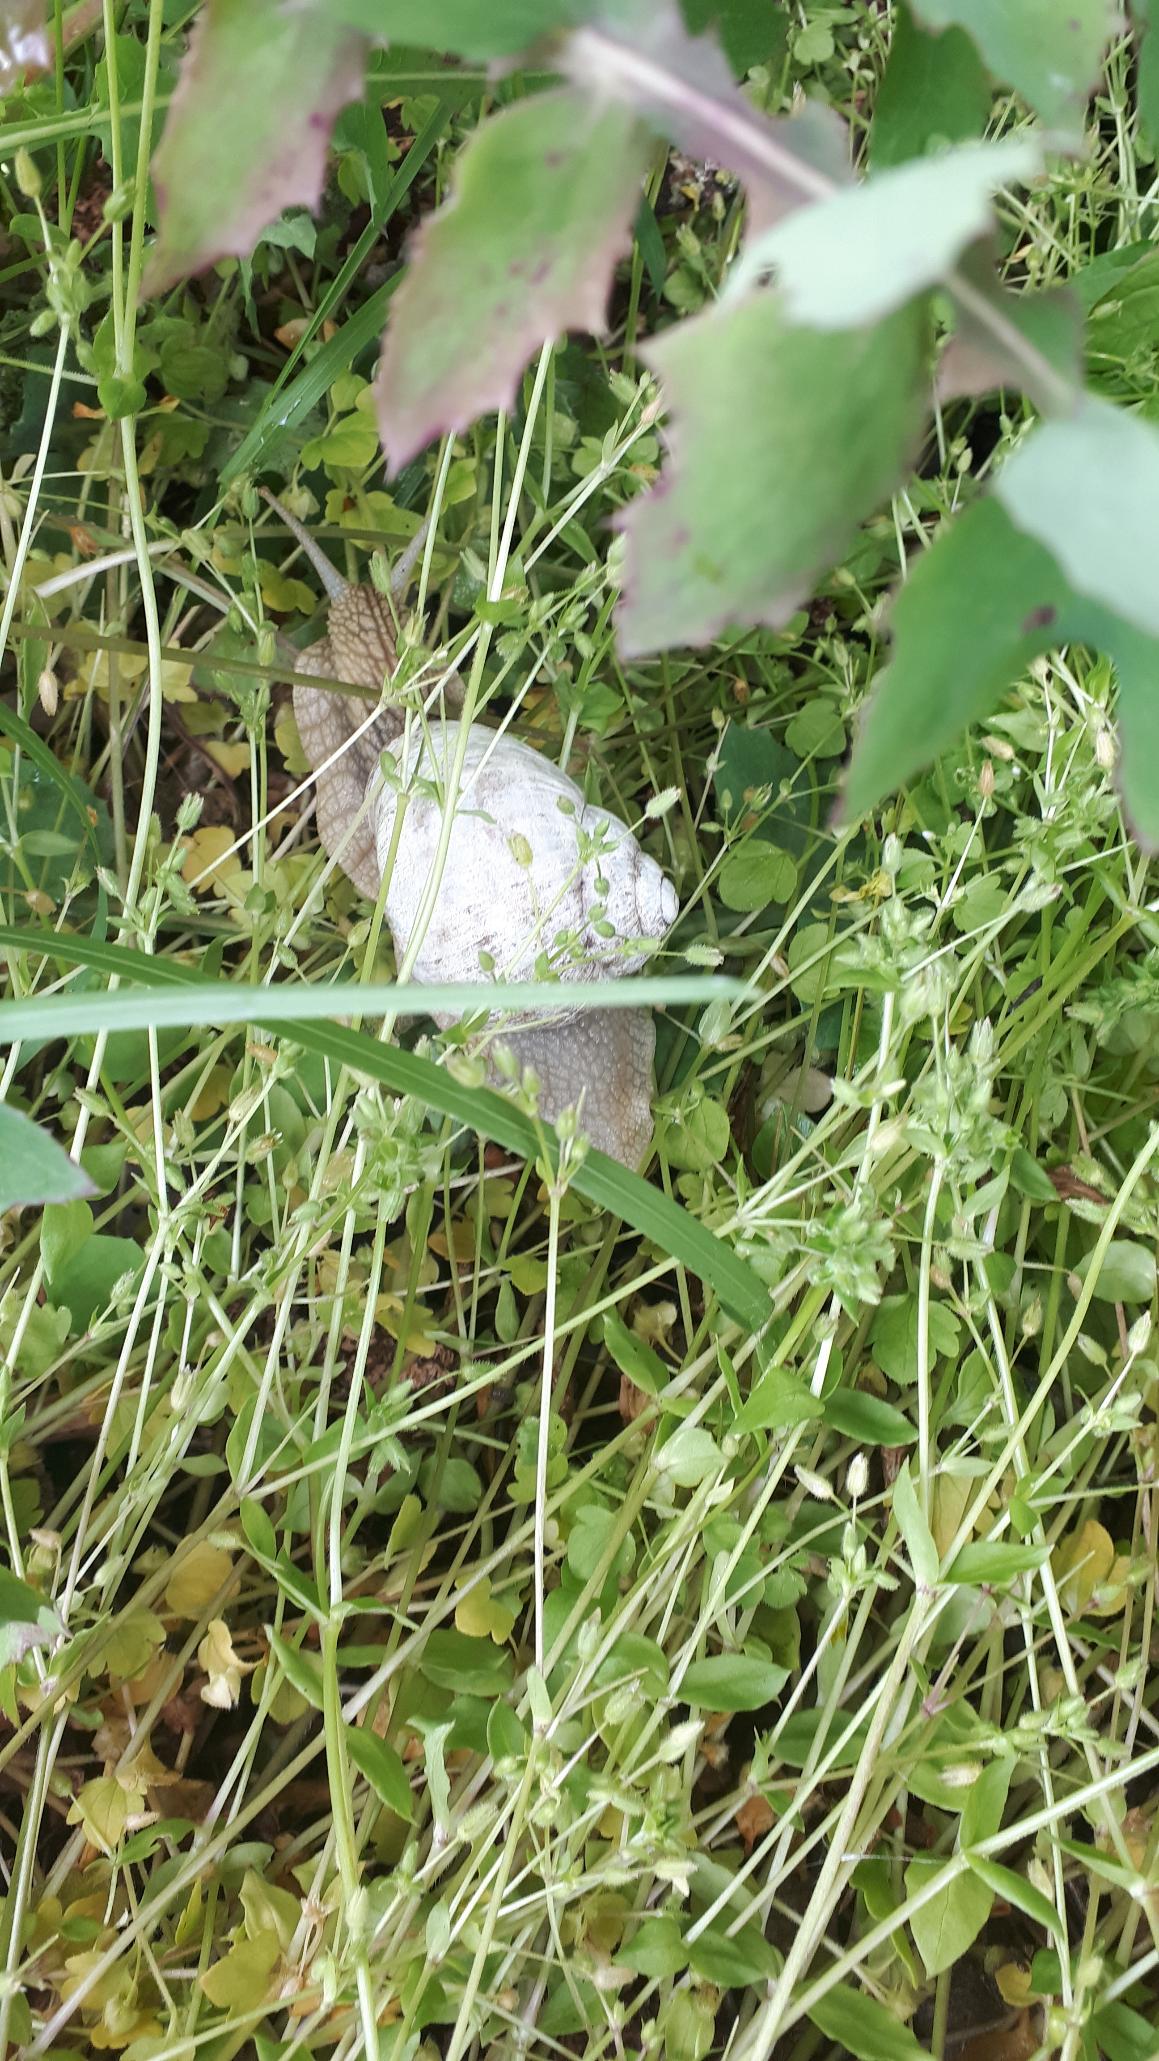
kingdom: Animalia
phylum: Mollusca
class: Gastropoda
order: Stylommatophora
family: Helicidae
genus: Helix
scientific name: Helix pomatia
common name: Vinbjergsnegl
